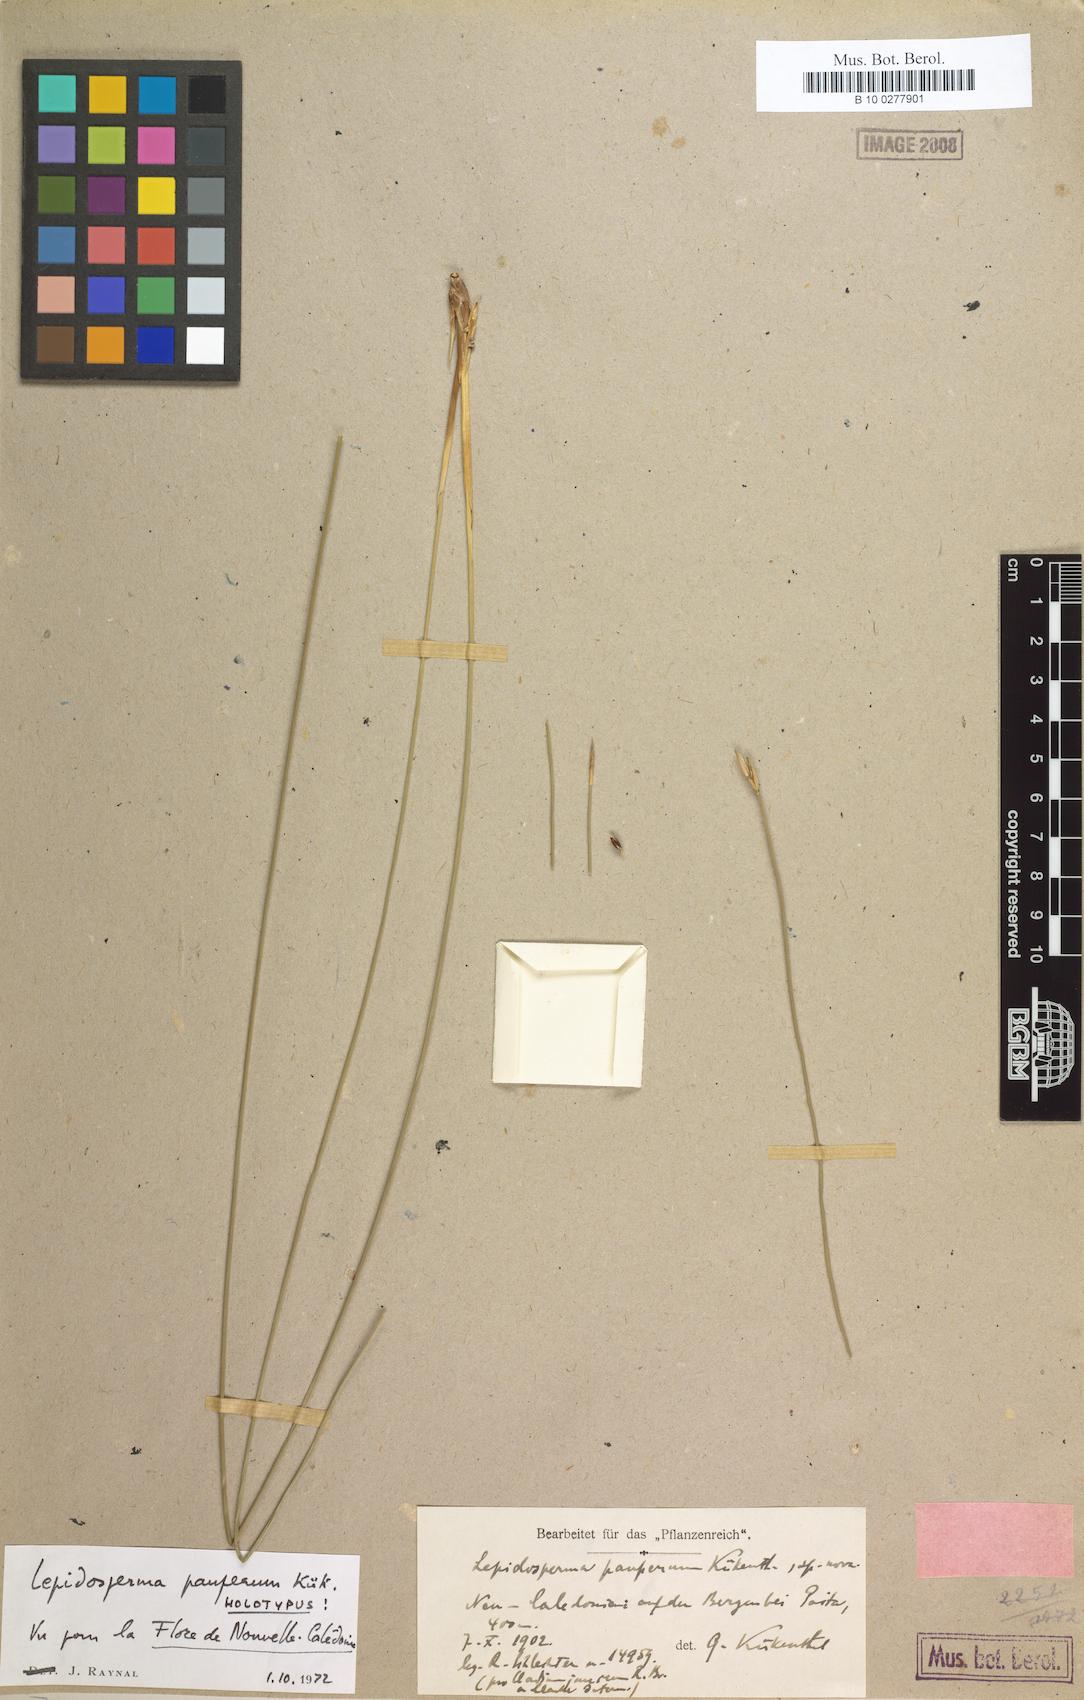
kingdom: Plantae
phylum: Tracheophyta
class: Liliopsida
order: Poales
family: Cyperaceae
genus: Lepidosperma
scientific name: Lepidosperma pauperum
